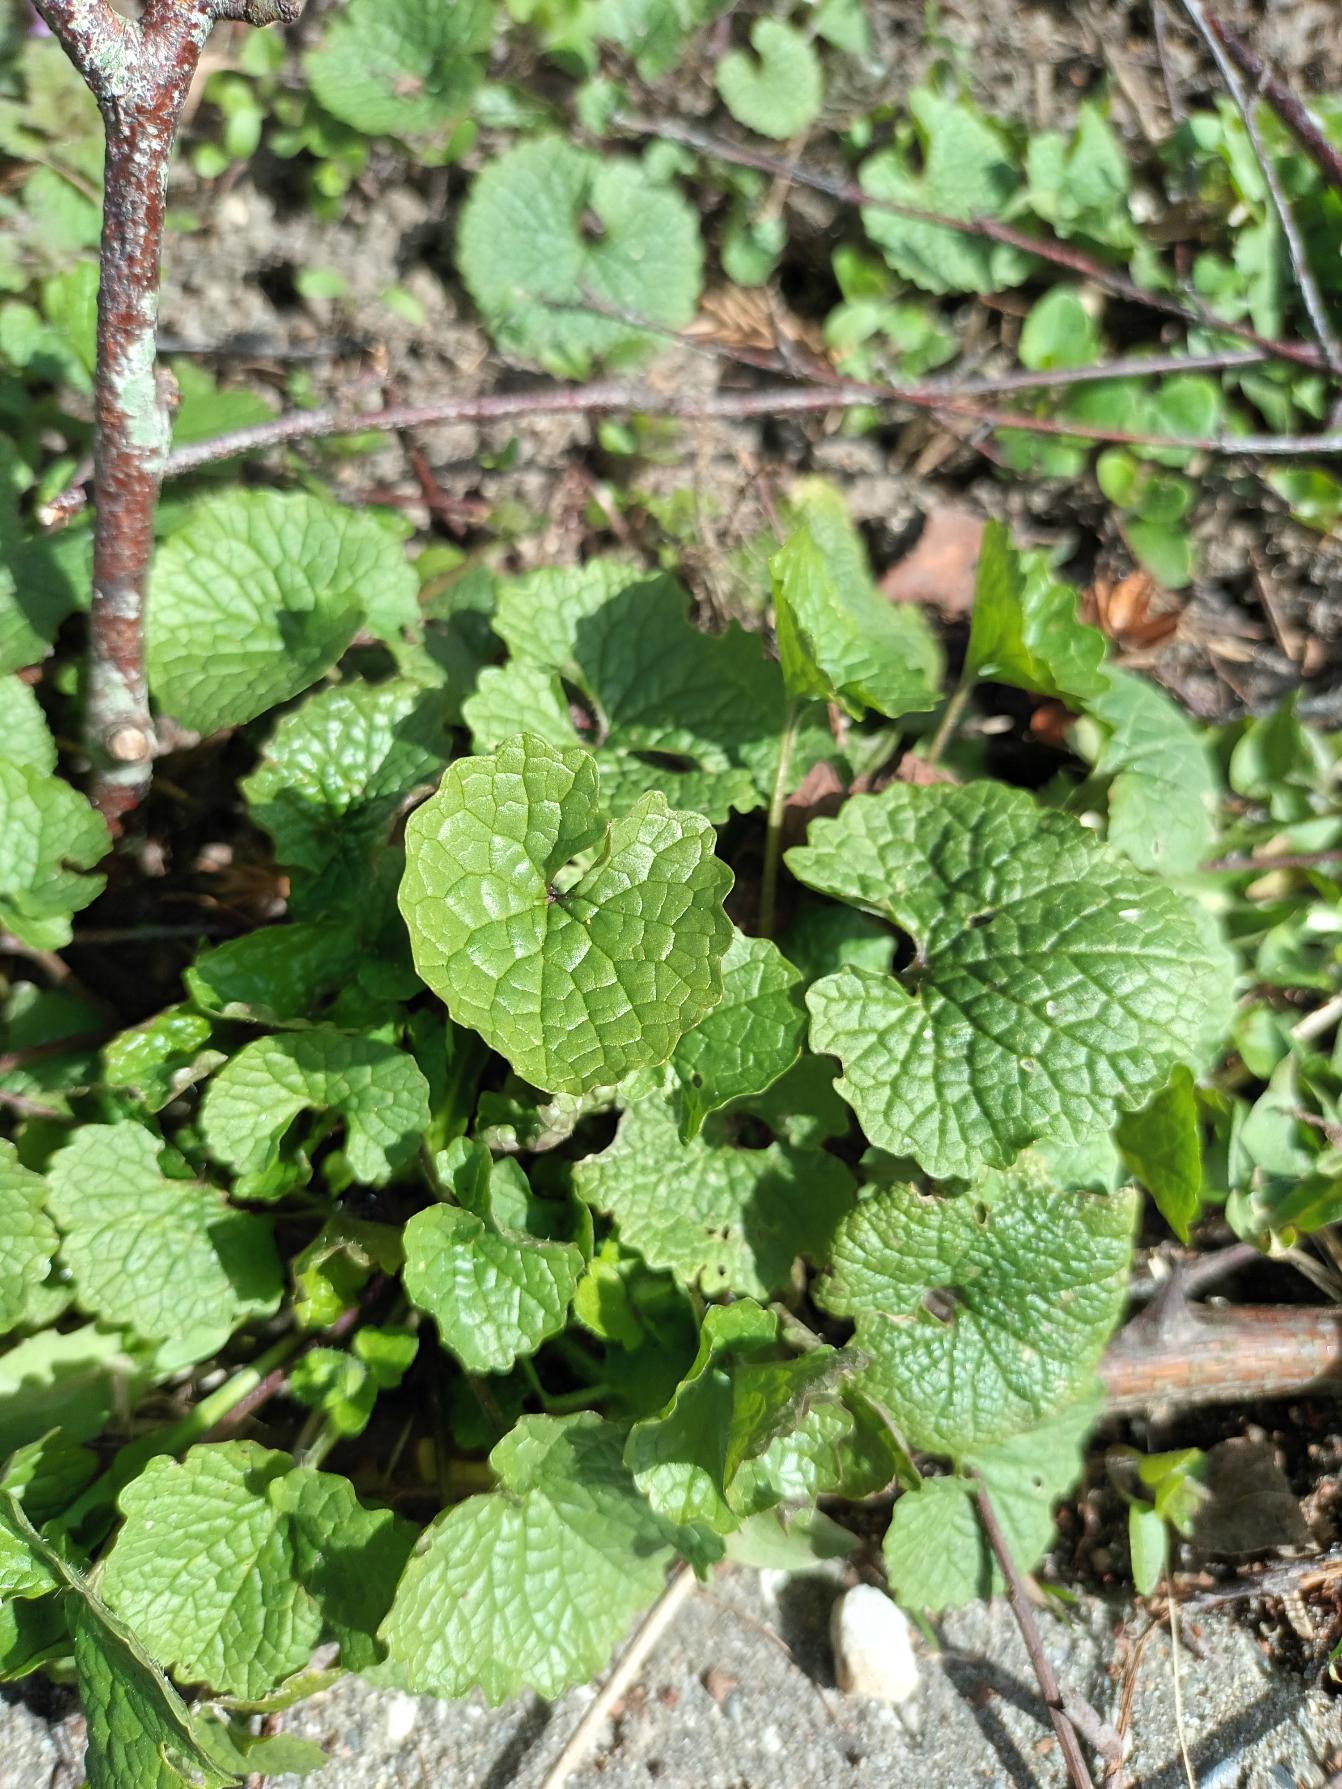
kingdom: Plantae
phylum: Tracheophyta
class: Magnoliopsida
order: Brassicales
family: Brassicaceae
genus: Alliaria
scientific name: Alliaria petiolata
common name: Løgkarse
